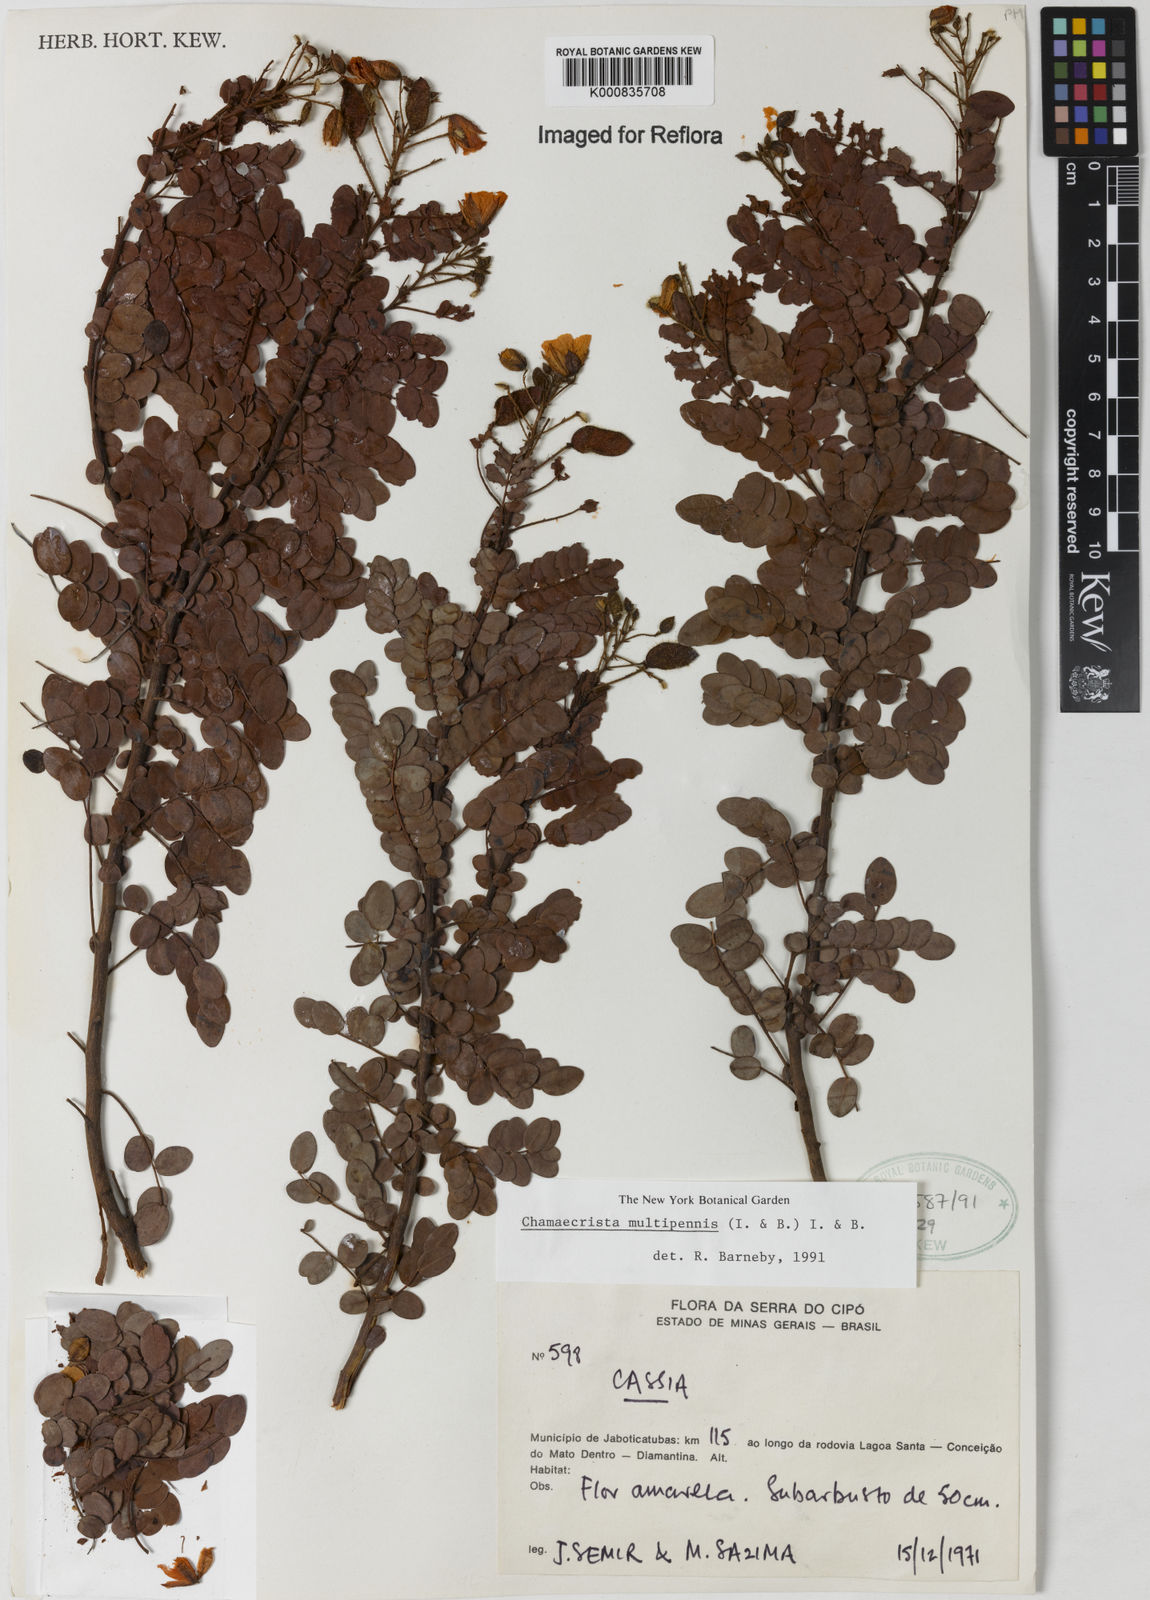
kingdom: Plantae
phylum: Tracheophyta
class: Magnoliopsida
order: Fabales
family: Fabaceae
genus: Chamaecrista
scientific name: Chamaecrista multipennis
